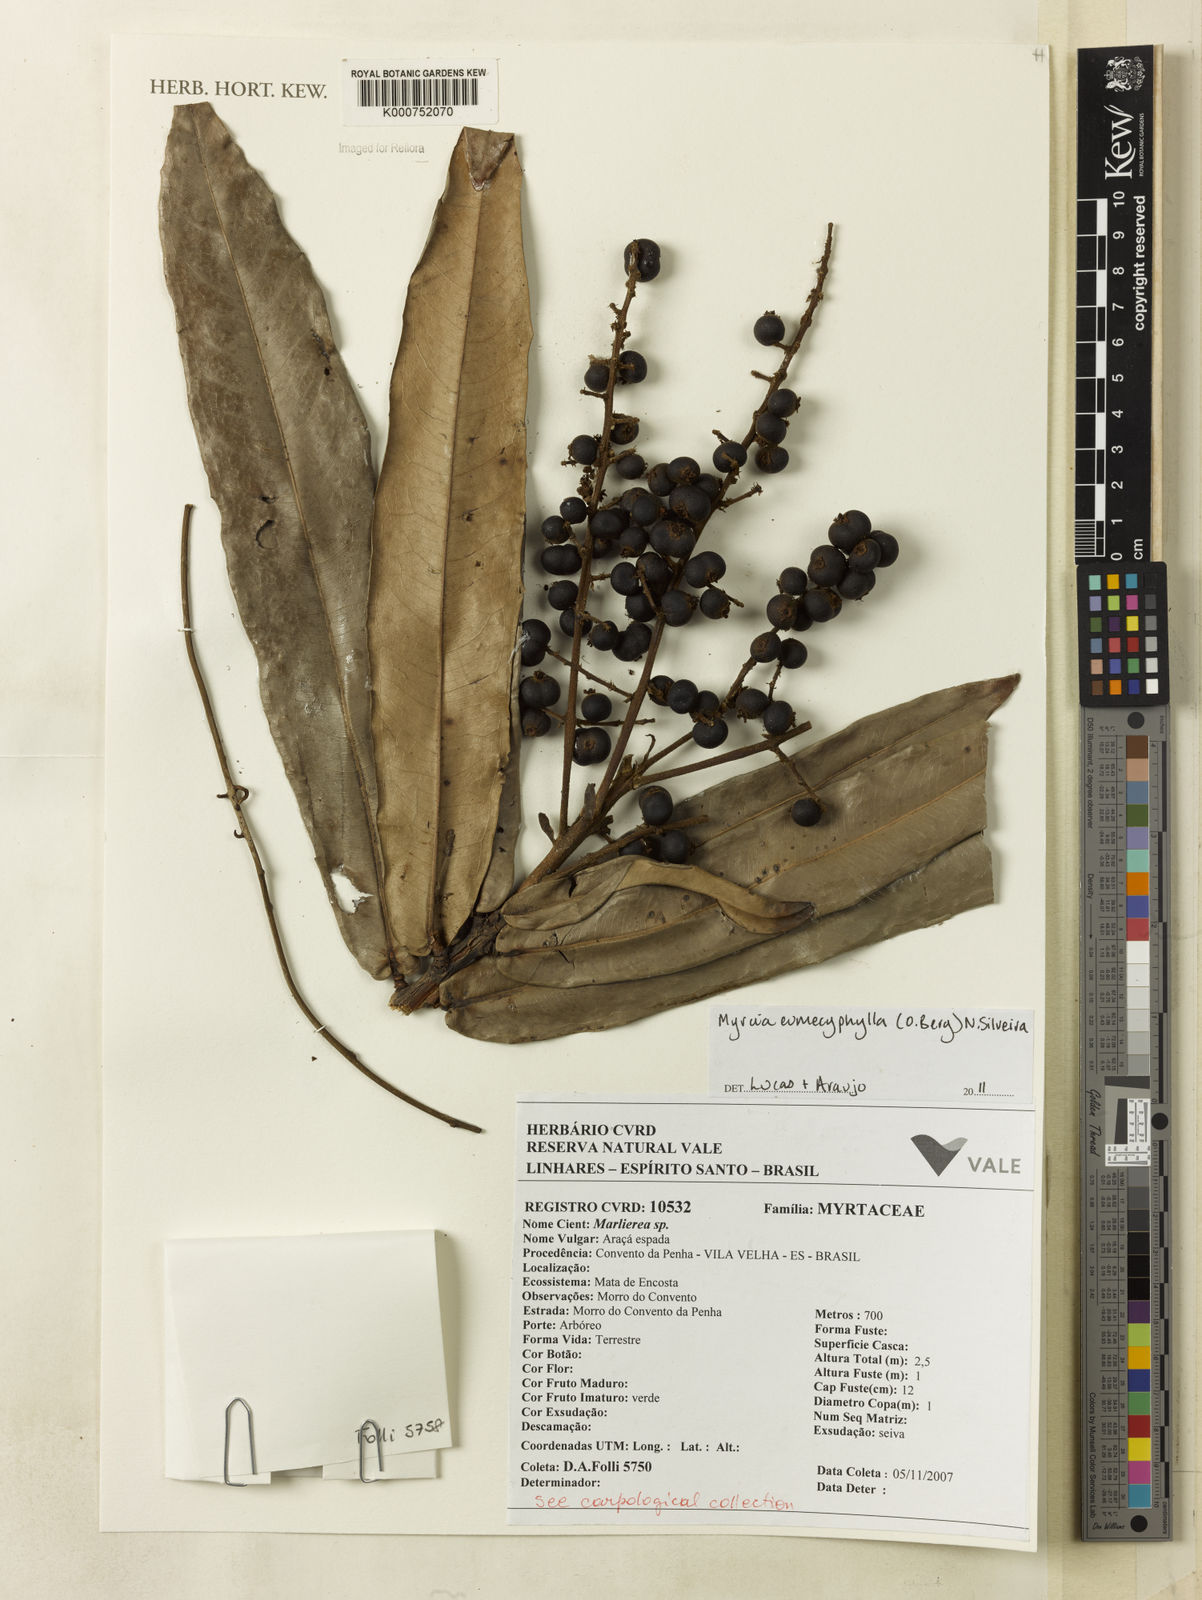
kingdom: Plantae
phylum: Tracheophyta
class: Magnoliopsida
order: Myrtales
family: Myrtaceae
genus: Myrcia
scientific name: Myrcia eumecephylla
